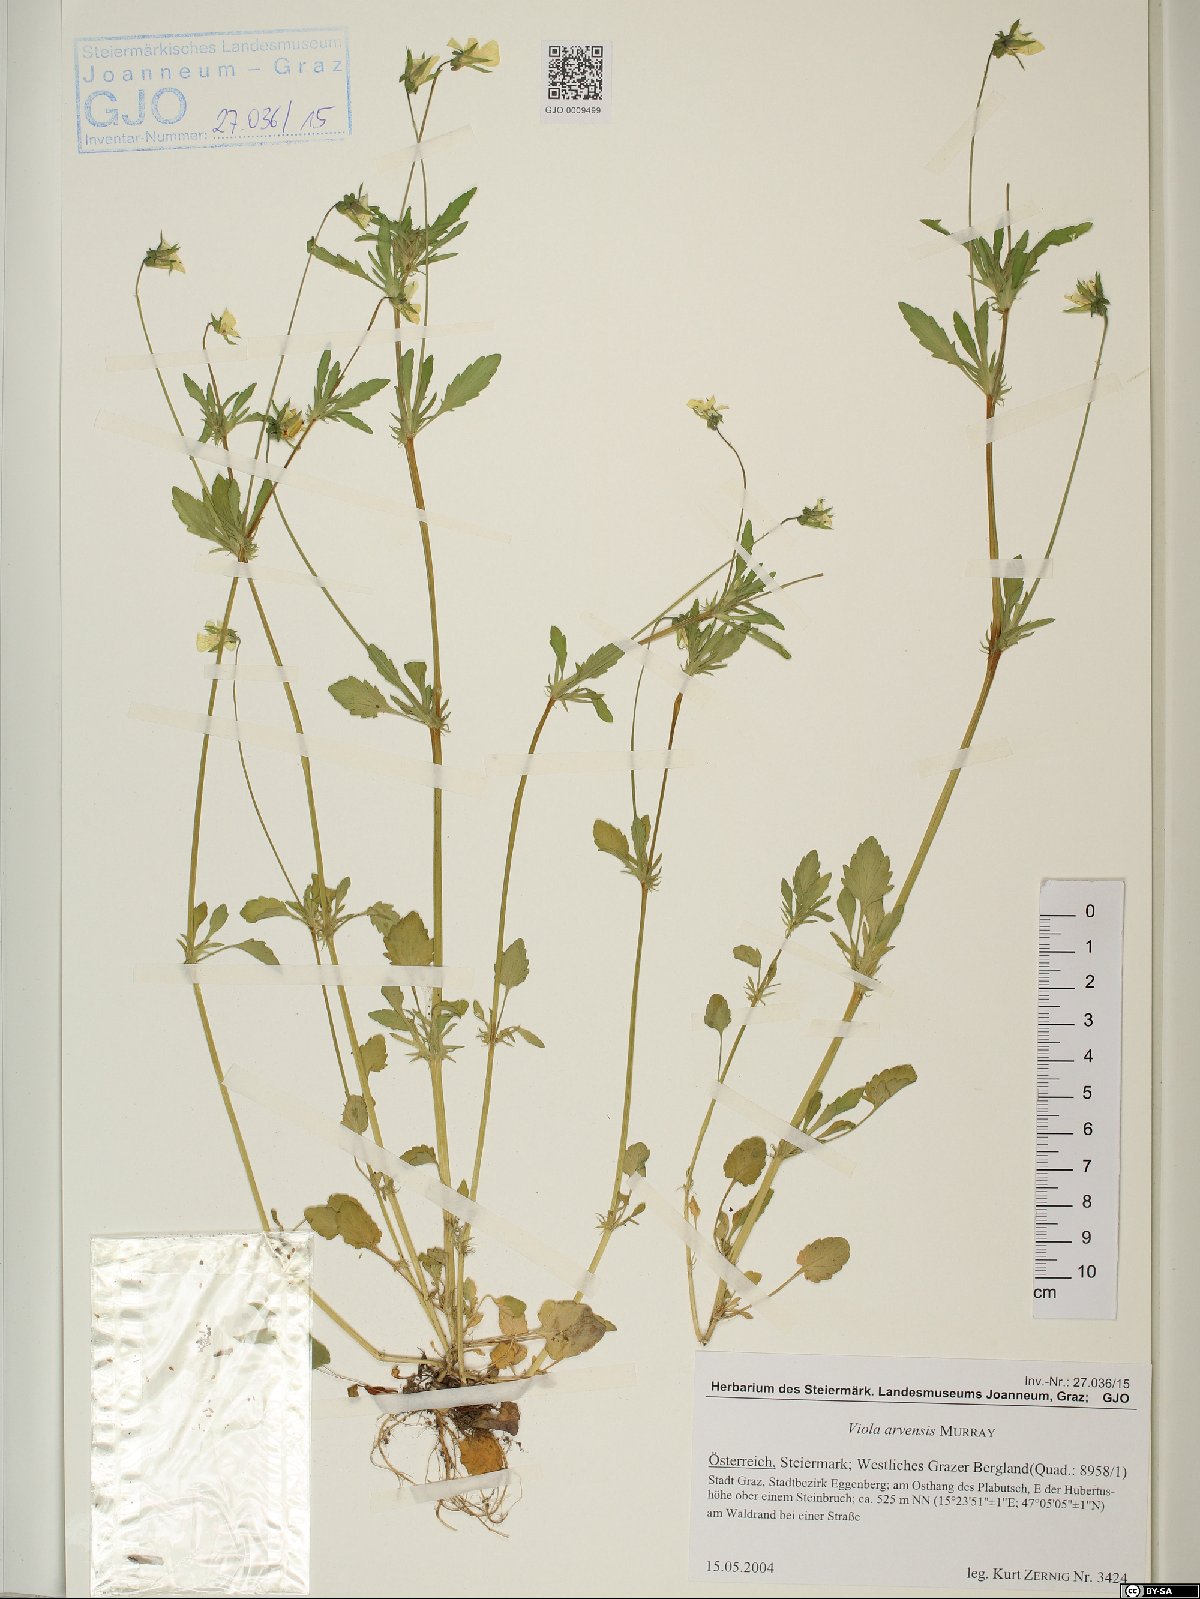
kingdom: Plantae
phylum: Tracheophyta
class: Magnoliopsida
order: Malpighiales
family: Violaceae
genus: Viola
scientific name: Viola arvensis
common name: Field pansy
